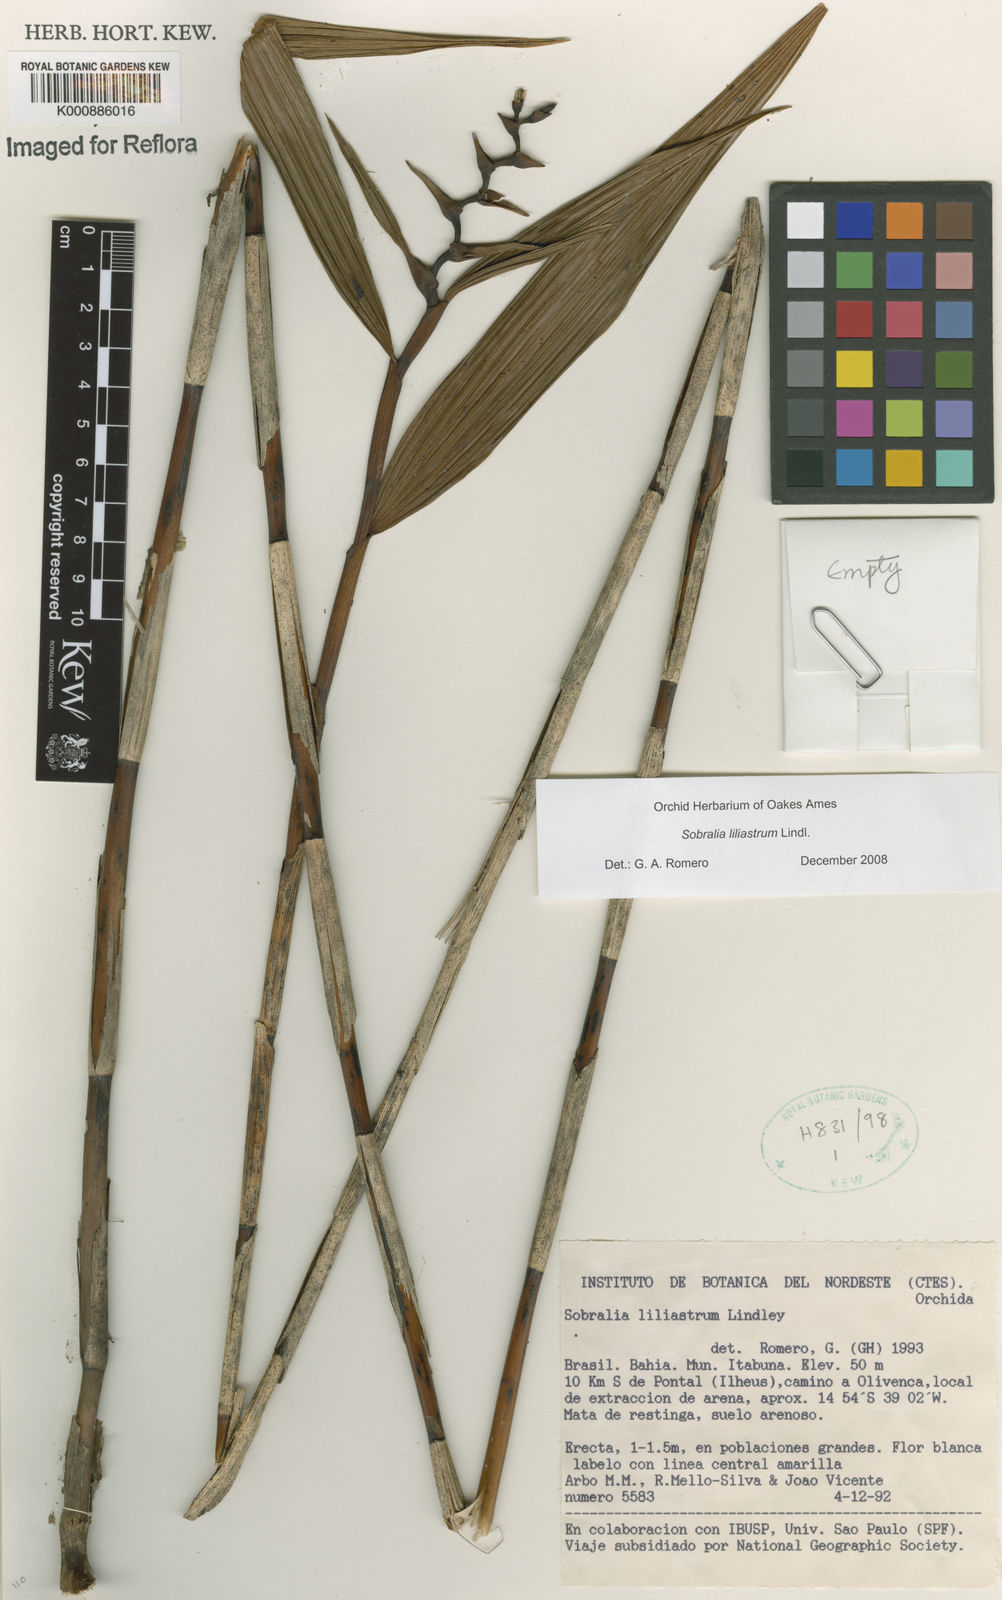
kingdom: Plantae
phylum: Tracheophyta
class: Liliopsida
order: Asparagales
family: Orchidaceae
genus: Sobralia
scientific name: Sobralia liliastrum
